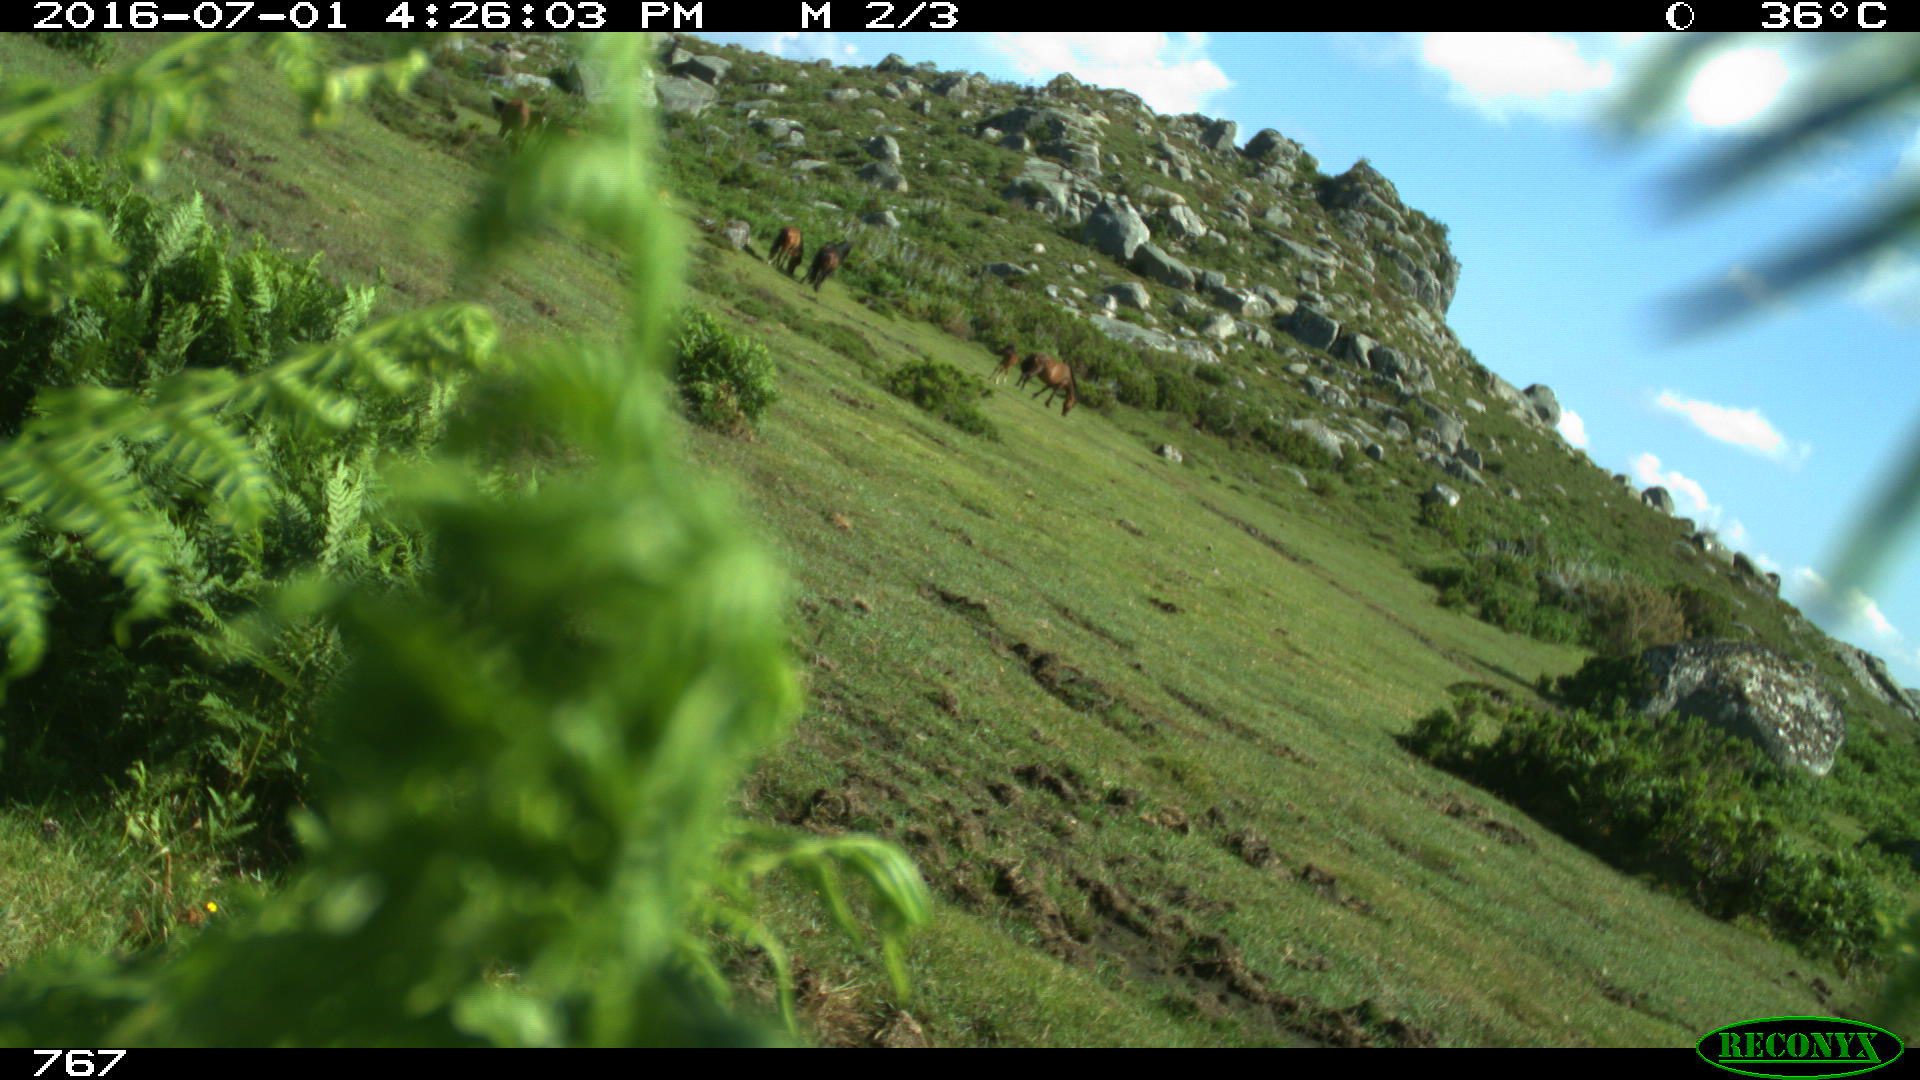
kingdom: Animalia
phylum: Chordata
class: Mammalia
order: Perissodactyla
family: Equidae
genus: Equus
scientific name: Equus caballus
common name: Horse
